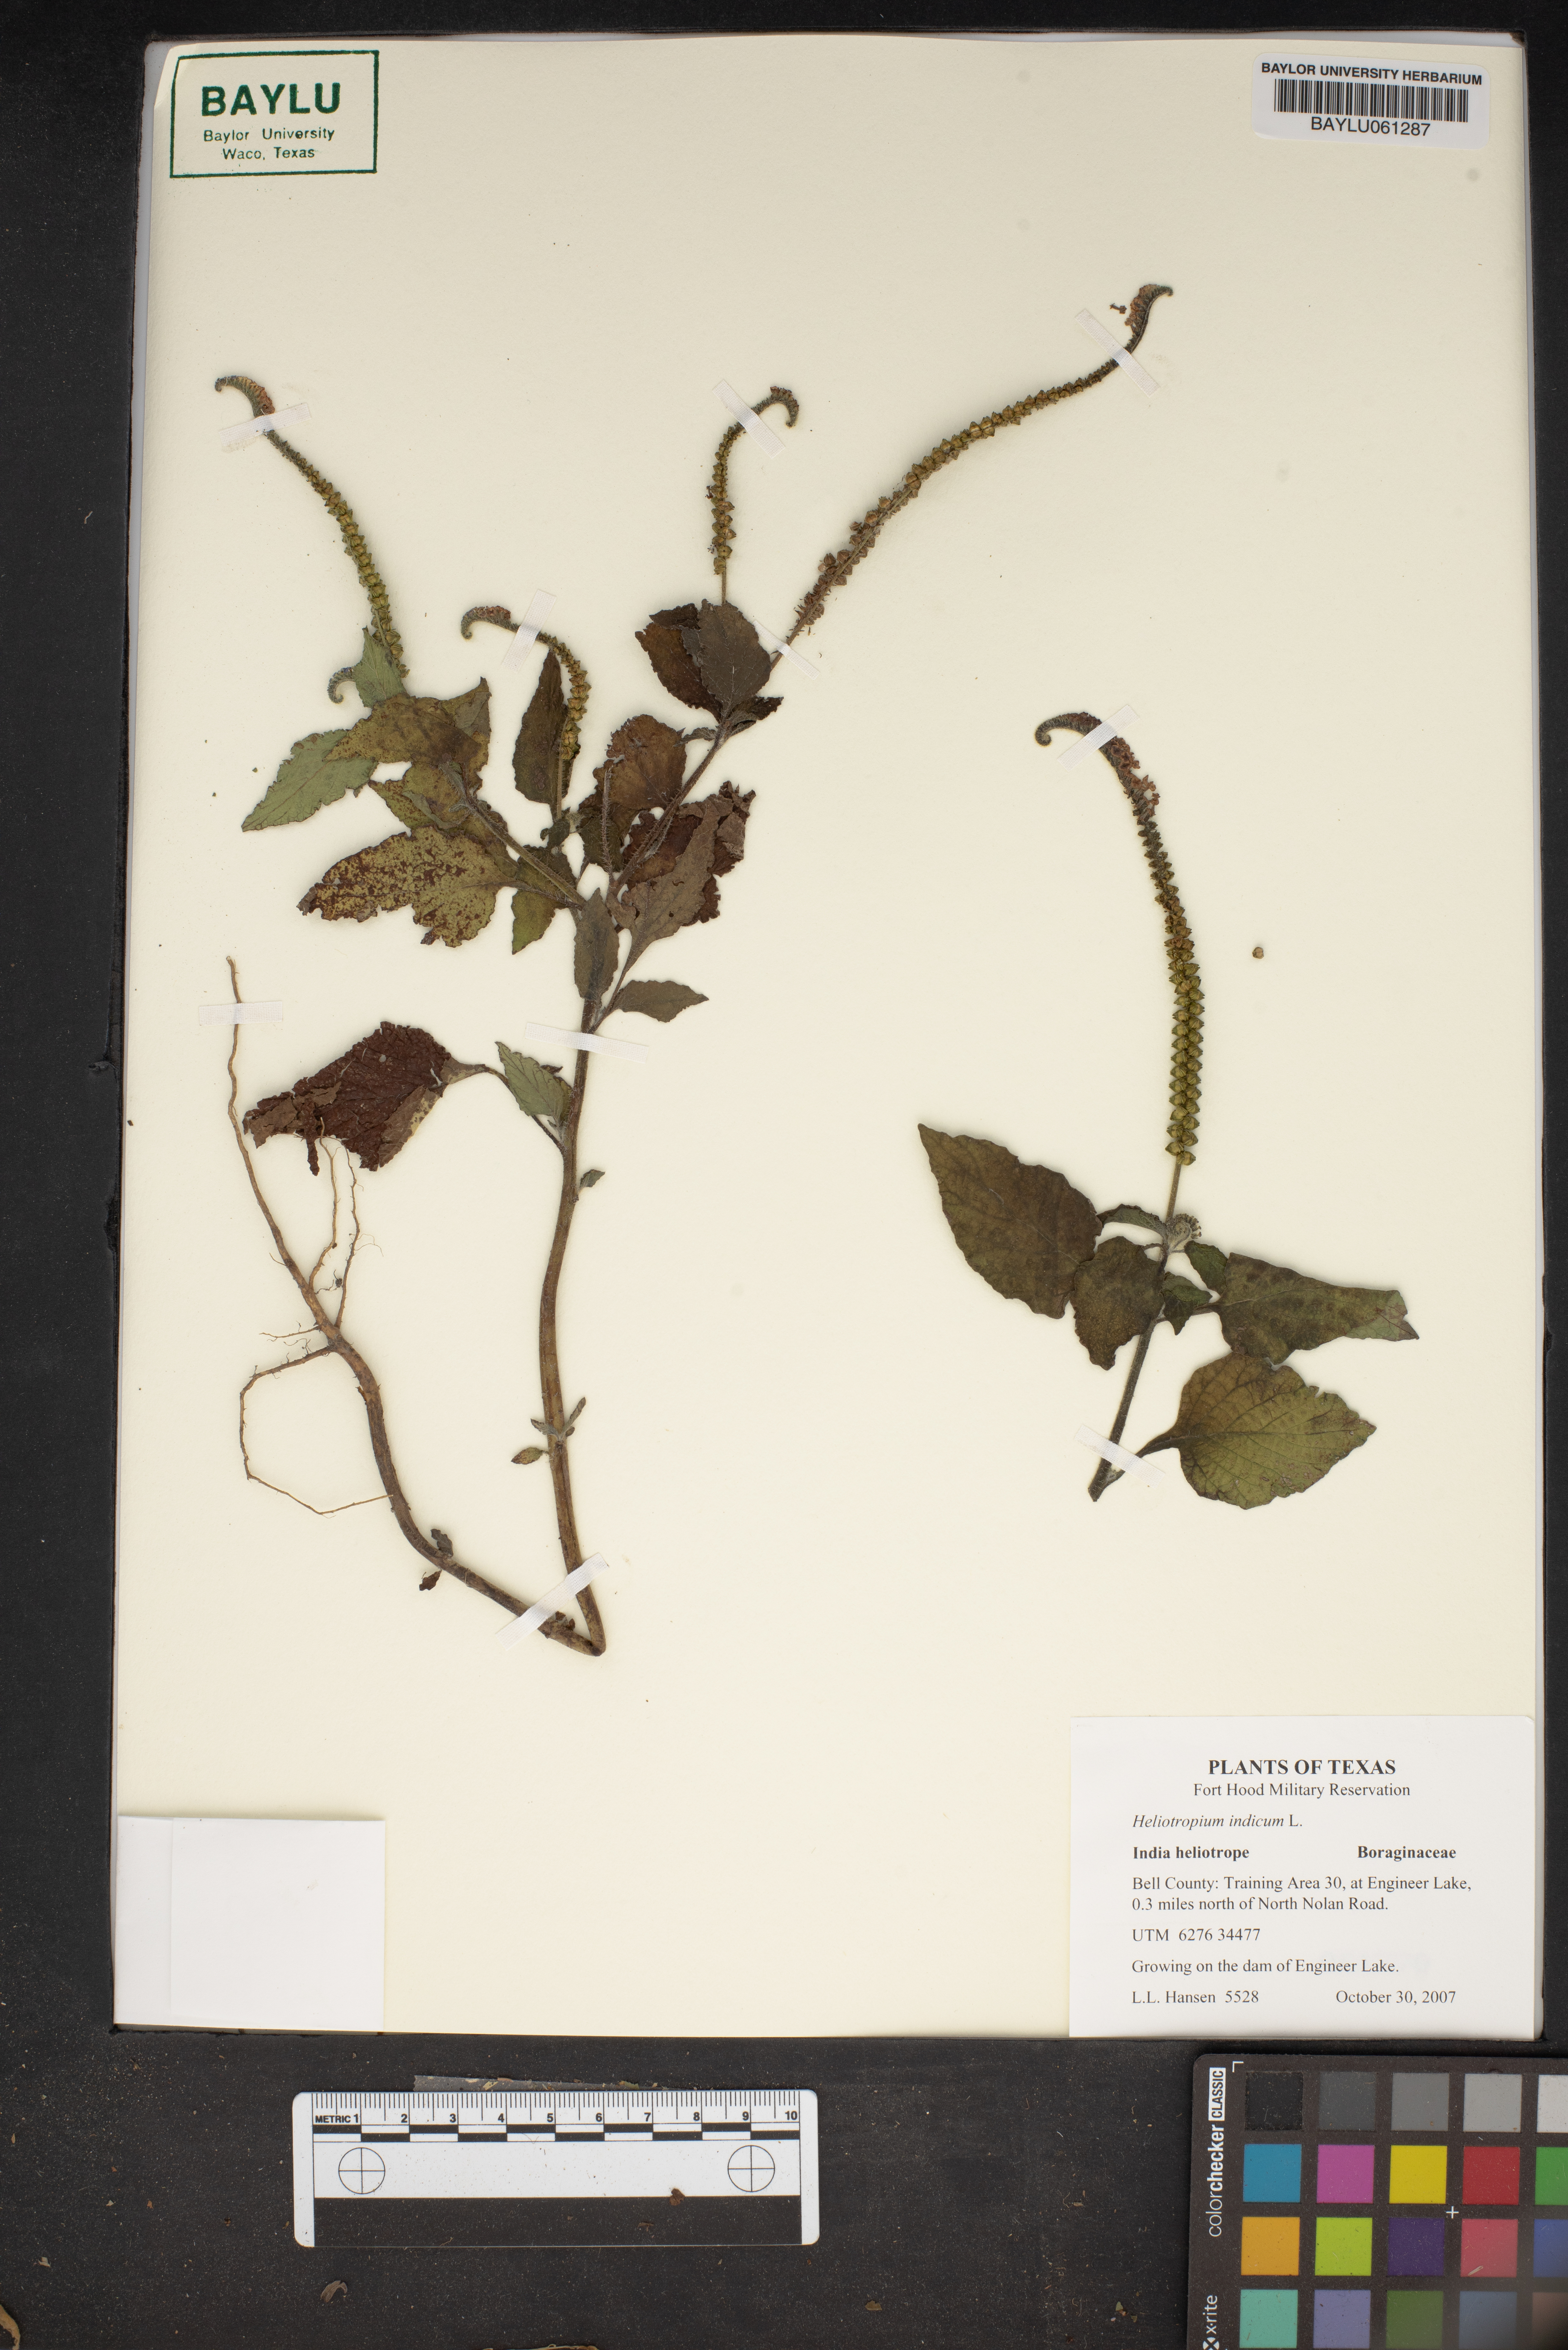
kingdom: Plantae
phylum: Tracheophyta
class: Magnoliopsida
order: Boraginales
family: Heliotropiaceae
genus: Heliotropium
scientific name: Heliotropium indicum
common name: Indian heliotrope
